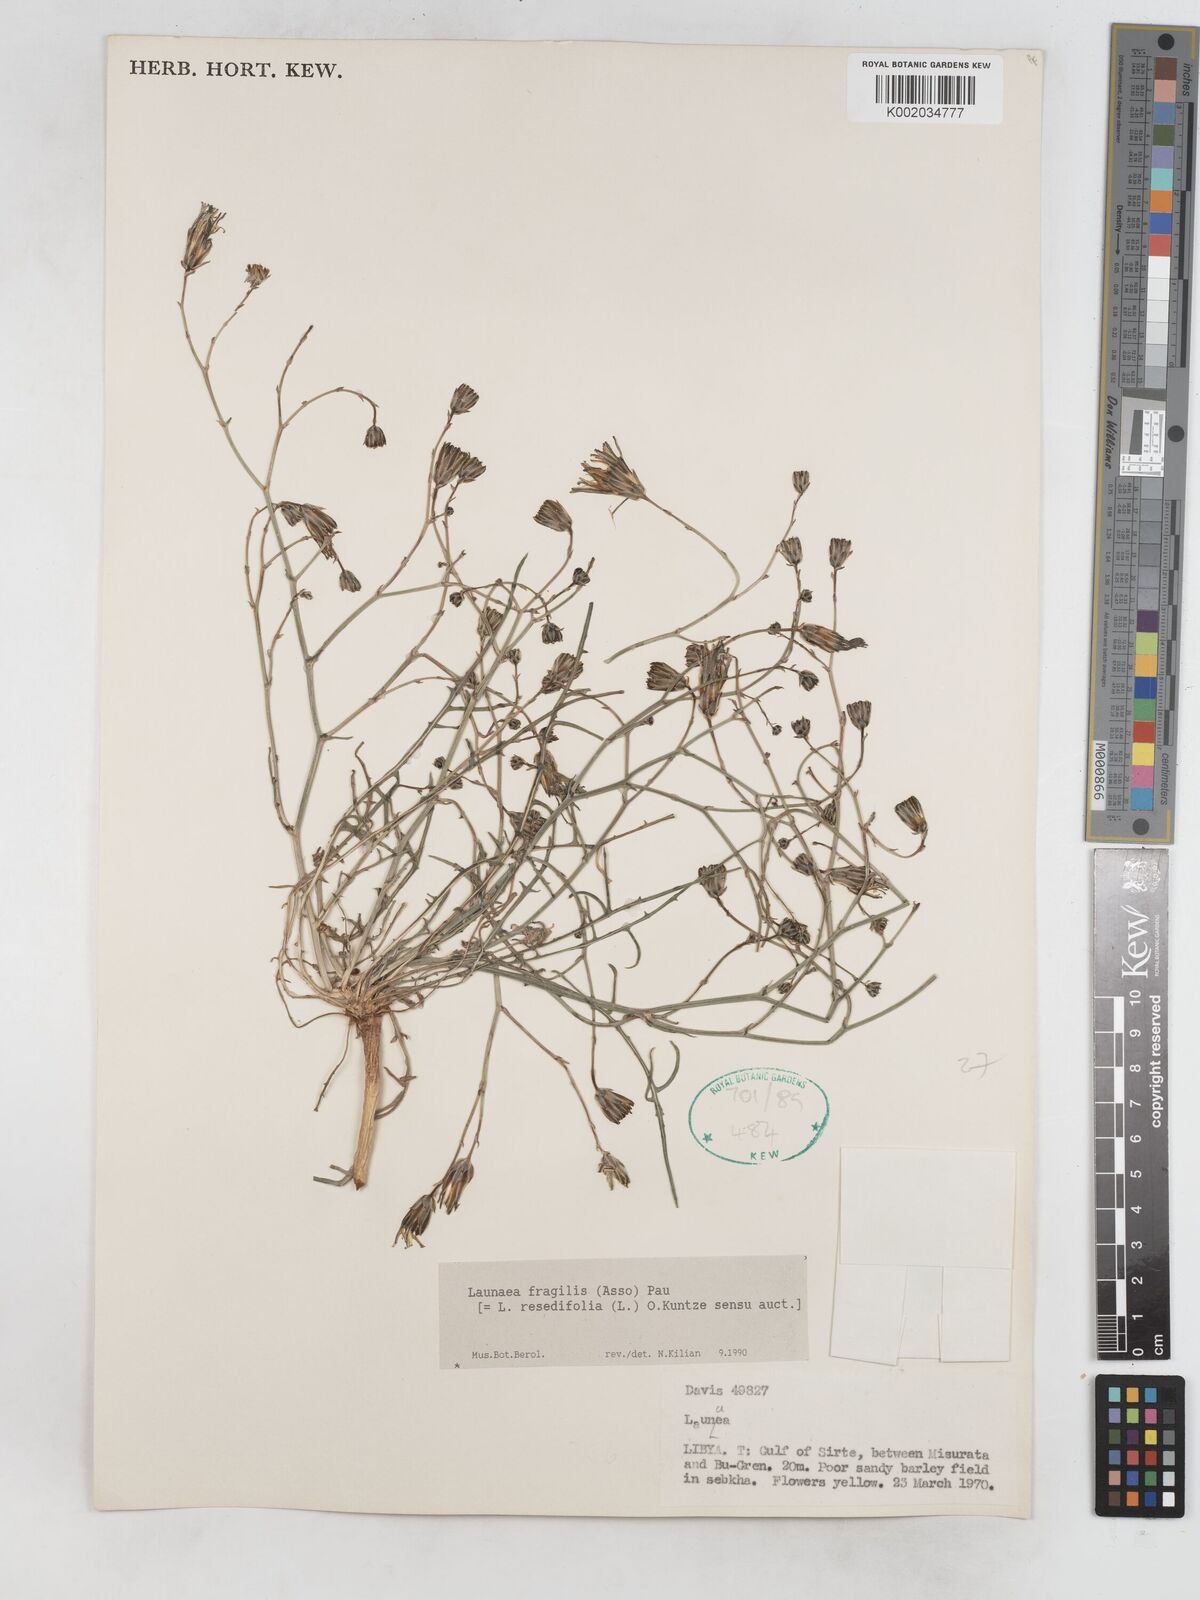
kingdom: Plantae
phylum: Tracheophyta
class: Magnoliopsida
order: Asterales
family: Asteraceae
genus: Launaea
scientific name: Launaea fragilis
